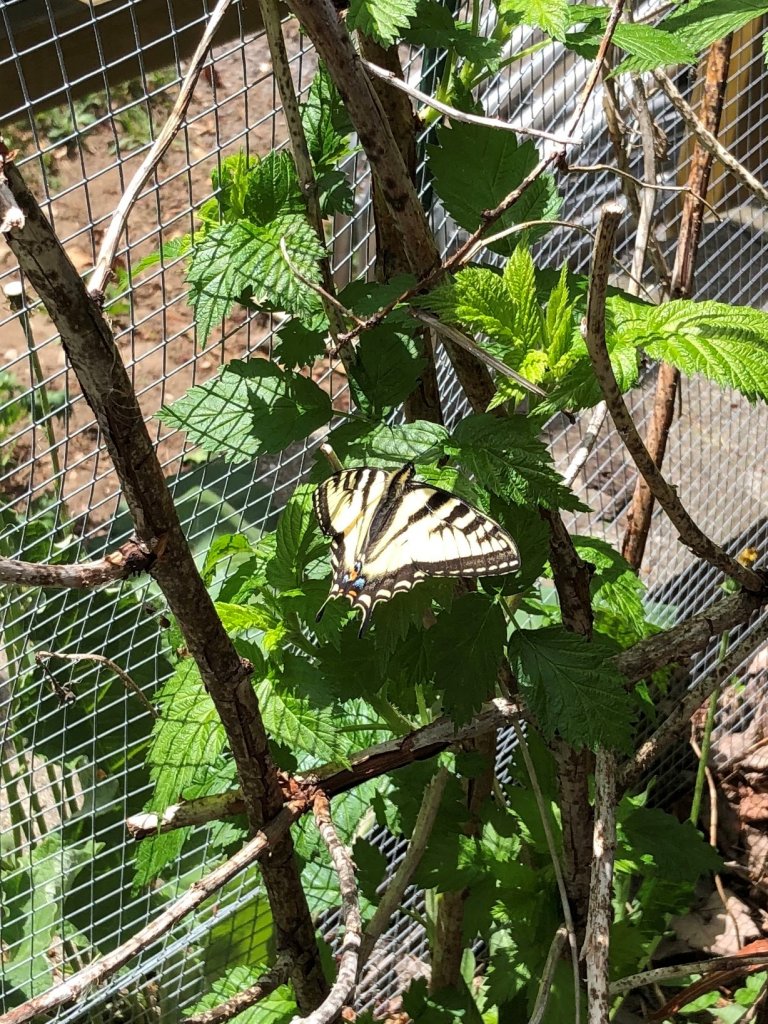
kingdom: Animalia
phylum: Arthropoda
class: Insecta
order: Lepidoptera
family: Papilionidae
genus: Pterourus
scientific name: Pterourus canadensis
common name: Canadian Tiger Swallowtail
